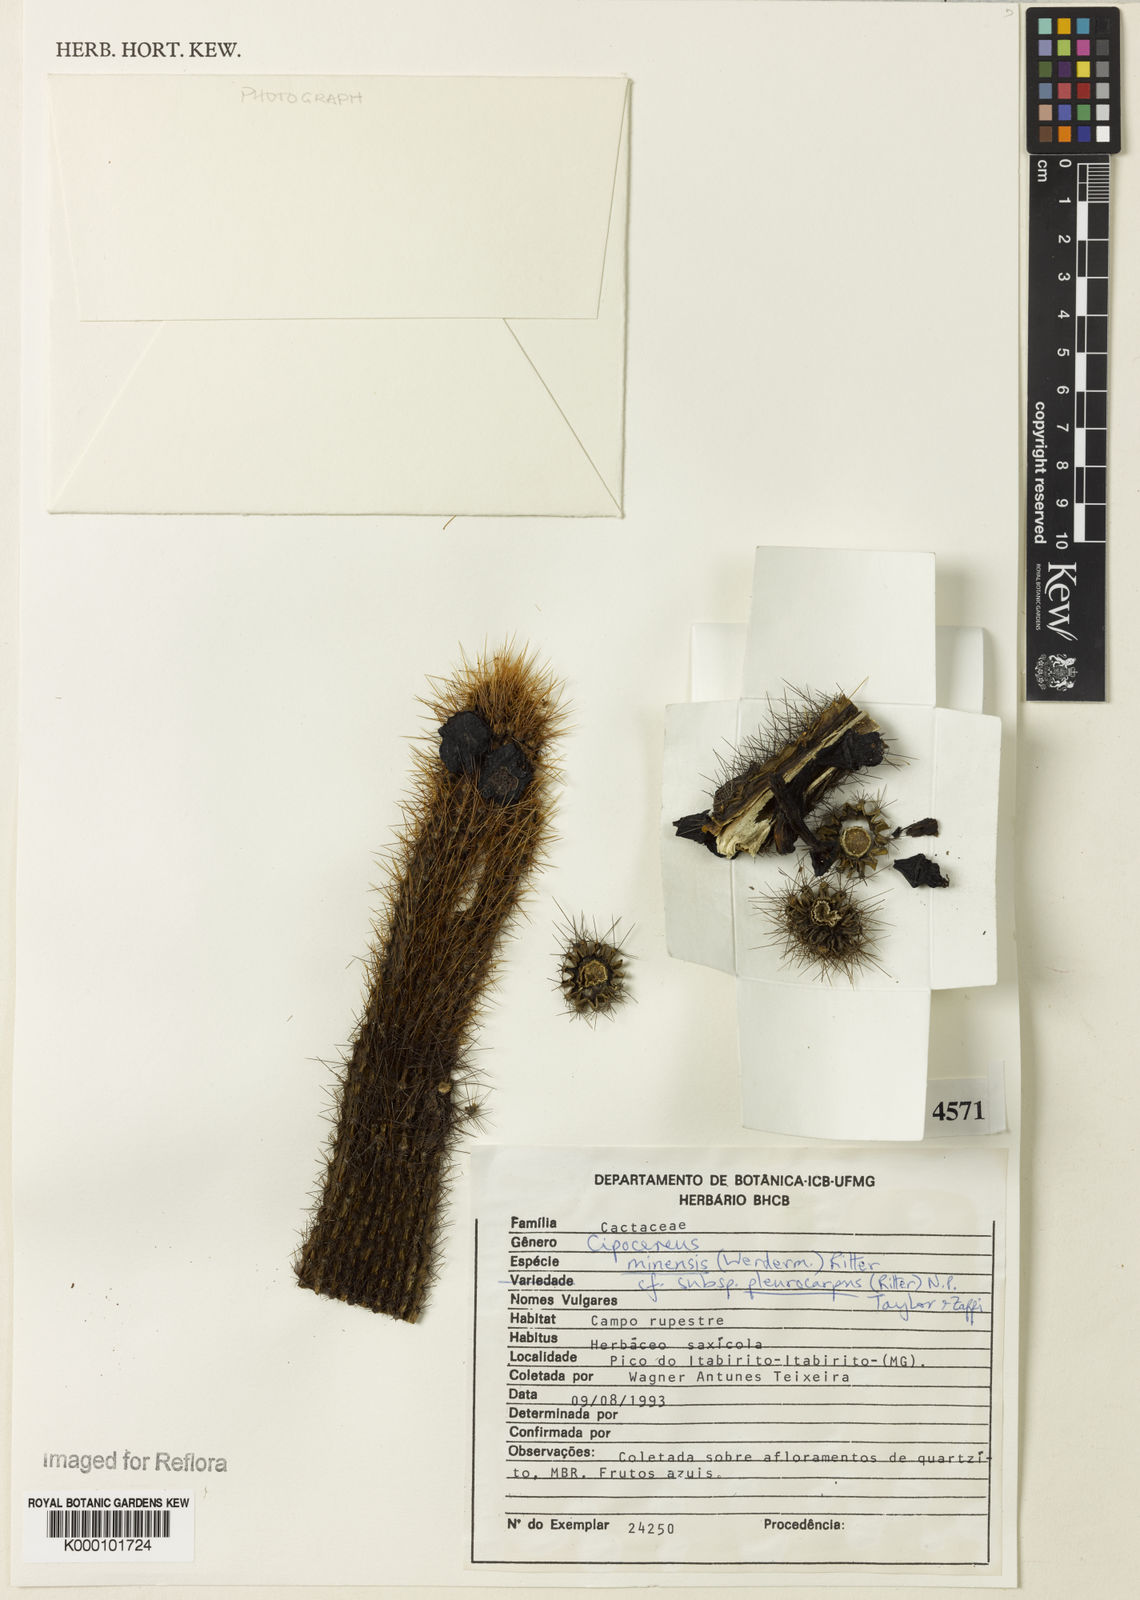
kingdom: Plantae
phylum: Tracheophyta
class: Magnoliopsida
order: Caryophyllales
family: Cactaceae
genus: Cipocereus
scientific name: Cipocereus minensis
